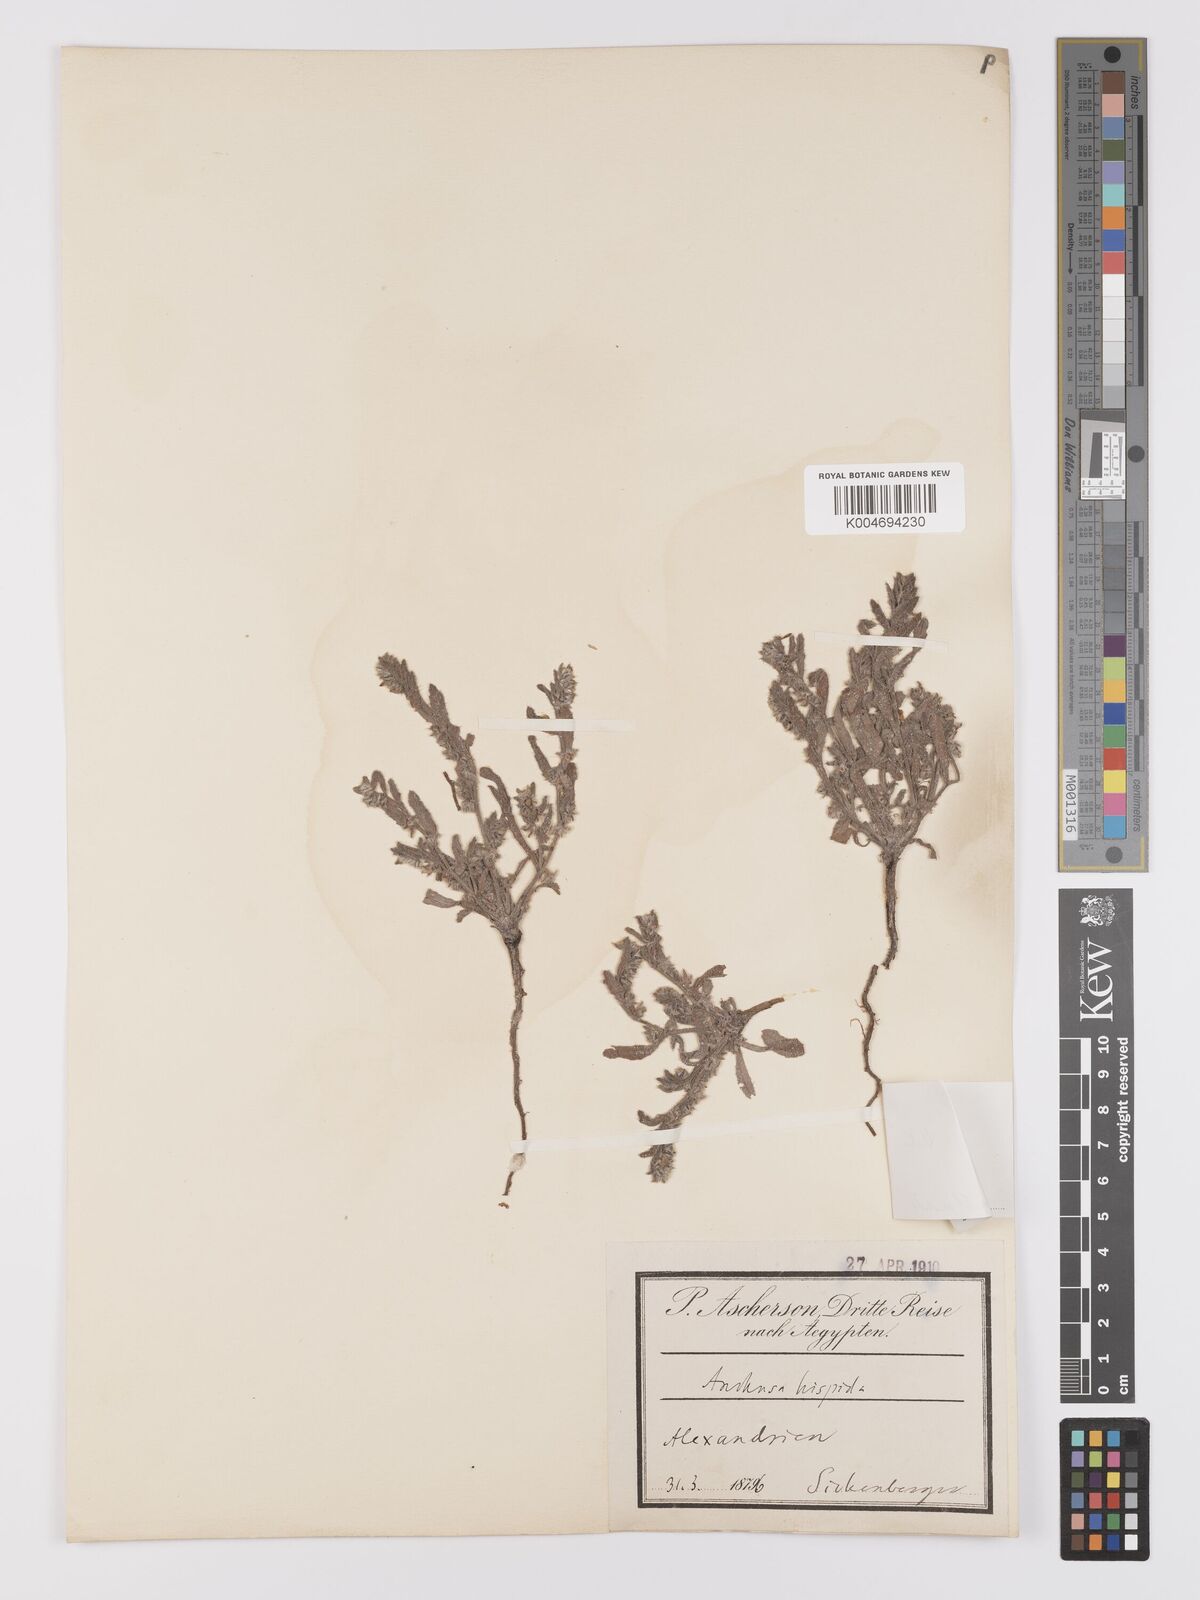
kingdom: Plantae
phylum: Tracheophyta
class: Magnoliopsida
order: Boraginales
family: Boraginaceae
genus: Gastrocotyle
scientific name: Gastrocotyle hispida
